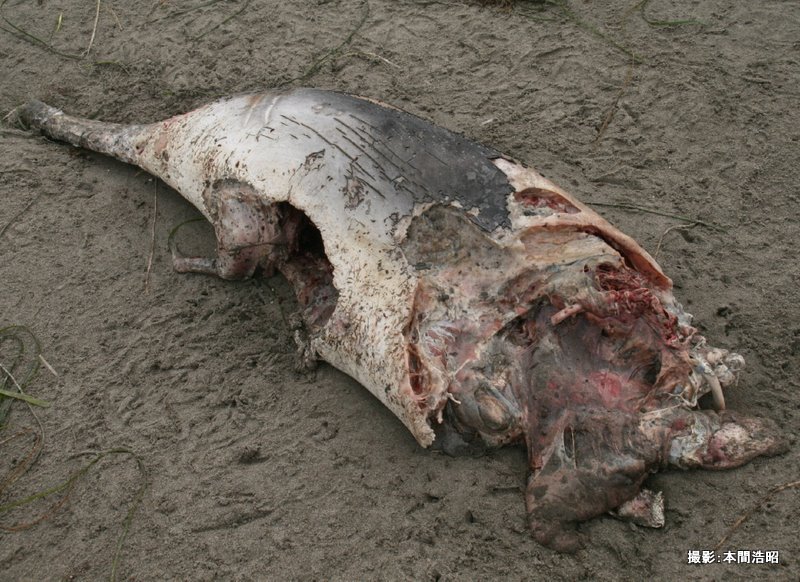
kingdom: Animalia
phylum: Chordata
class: Mammalia
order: Cetacea
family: Phocoenidae
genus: Phocoena
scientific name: Phocoena phocoena
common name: Harbour porpoise
